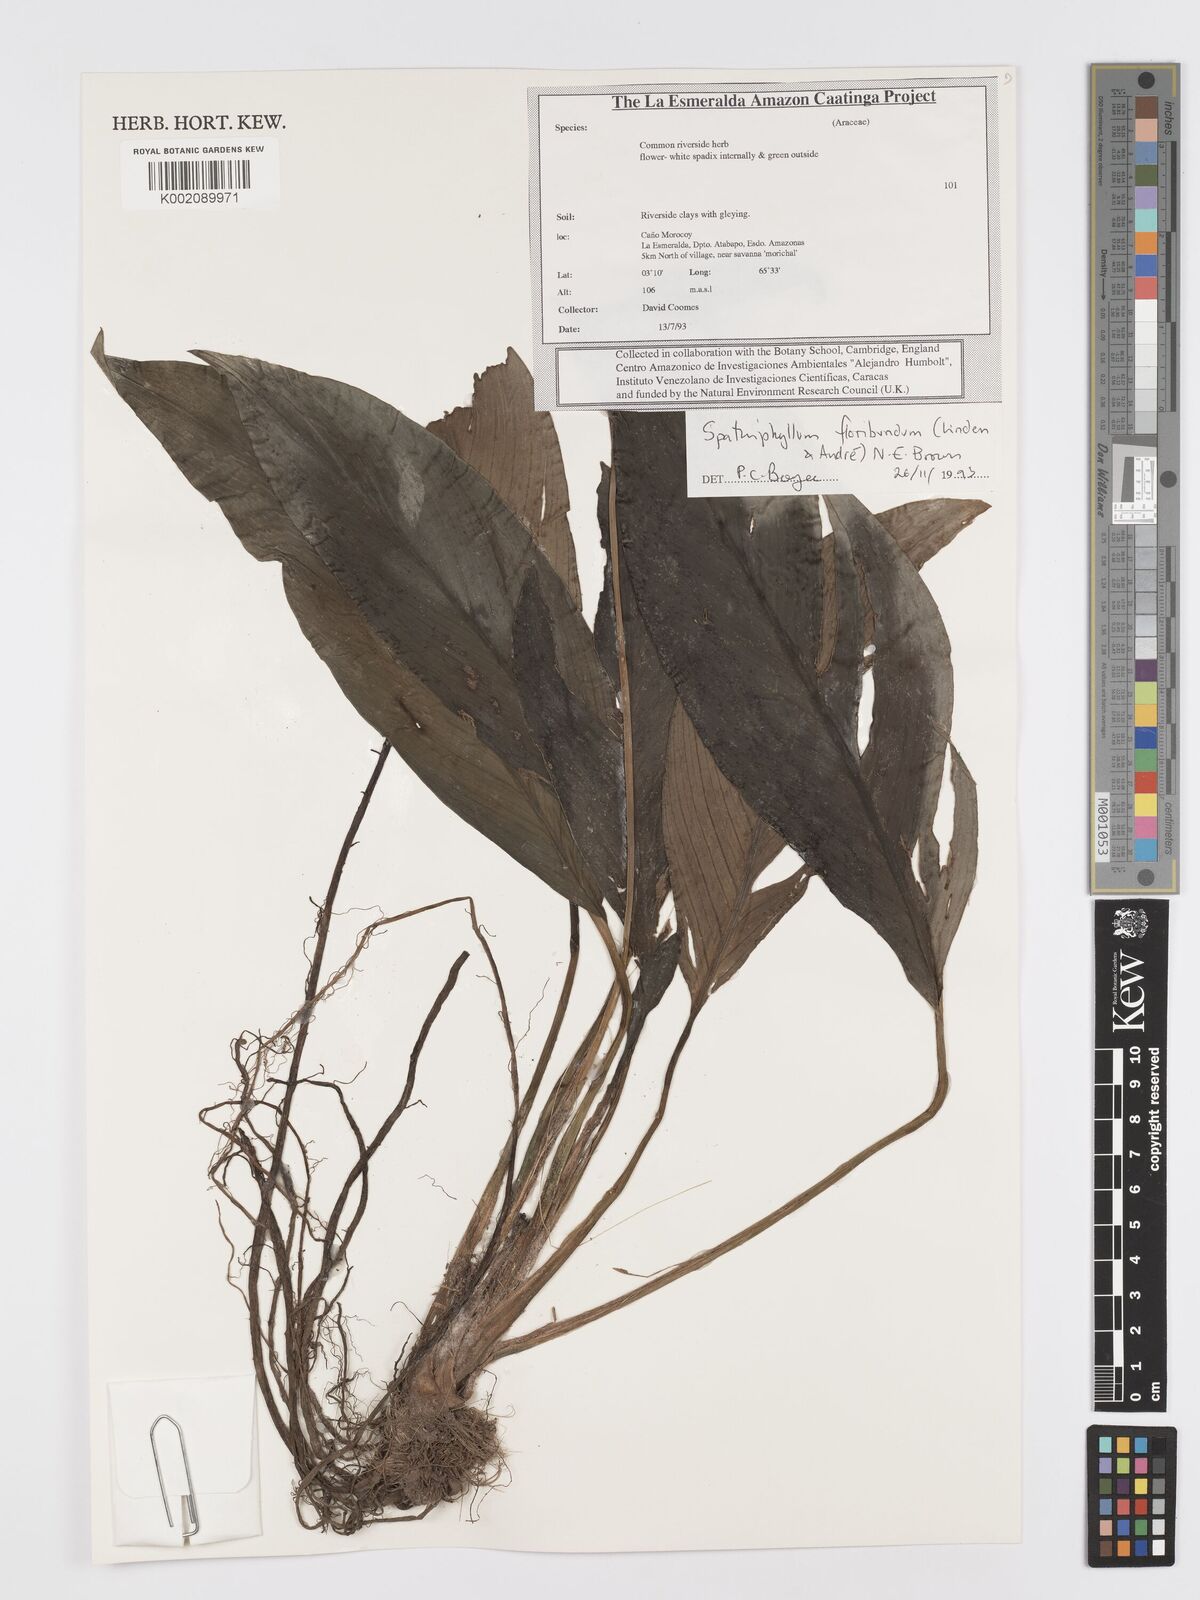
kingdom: Plantae
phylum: Tracheophyta
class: Liliopsida
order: Alismatales
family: Araceae
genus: Spathiphyllum
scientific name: Spathiphyllum floribundum
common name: Peace-lily
